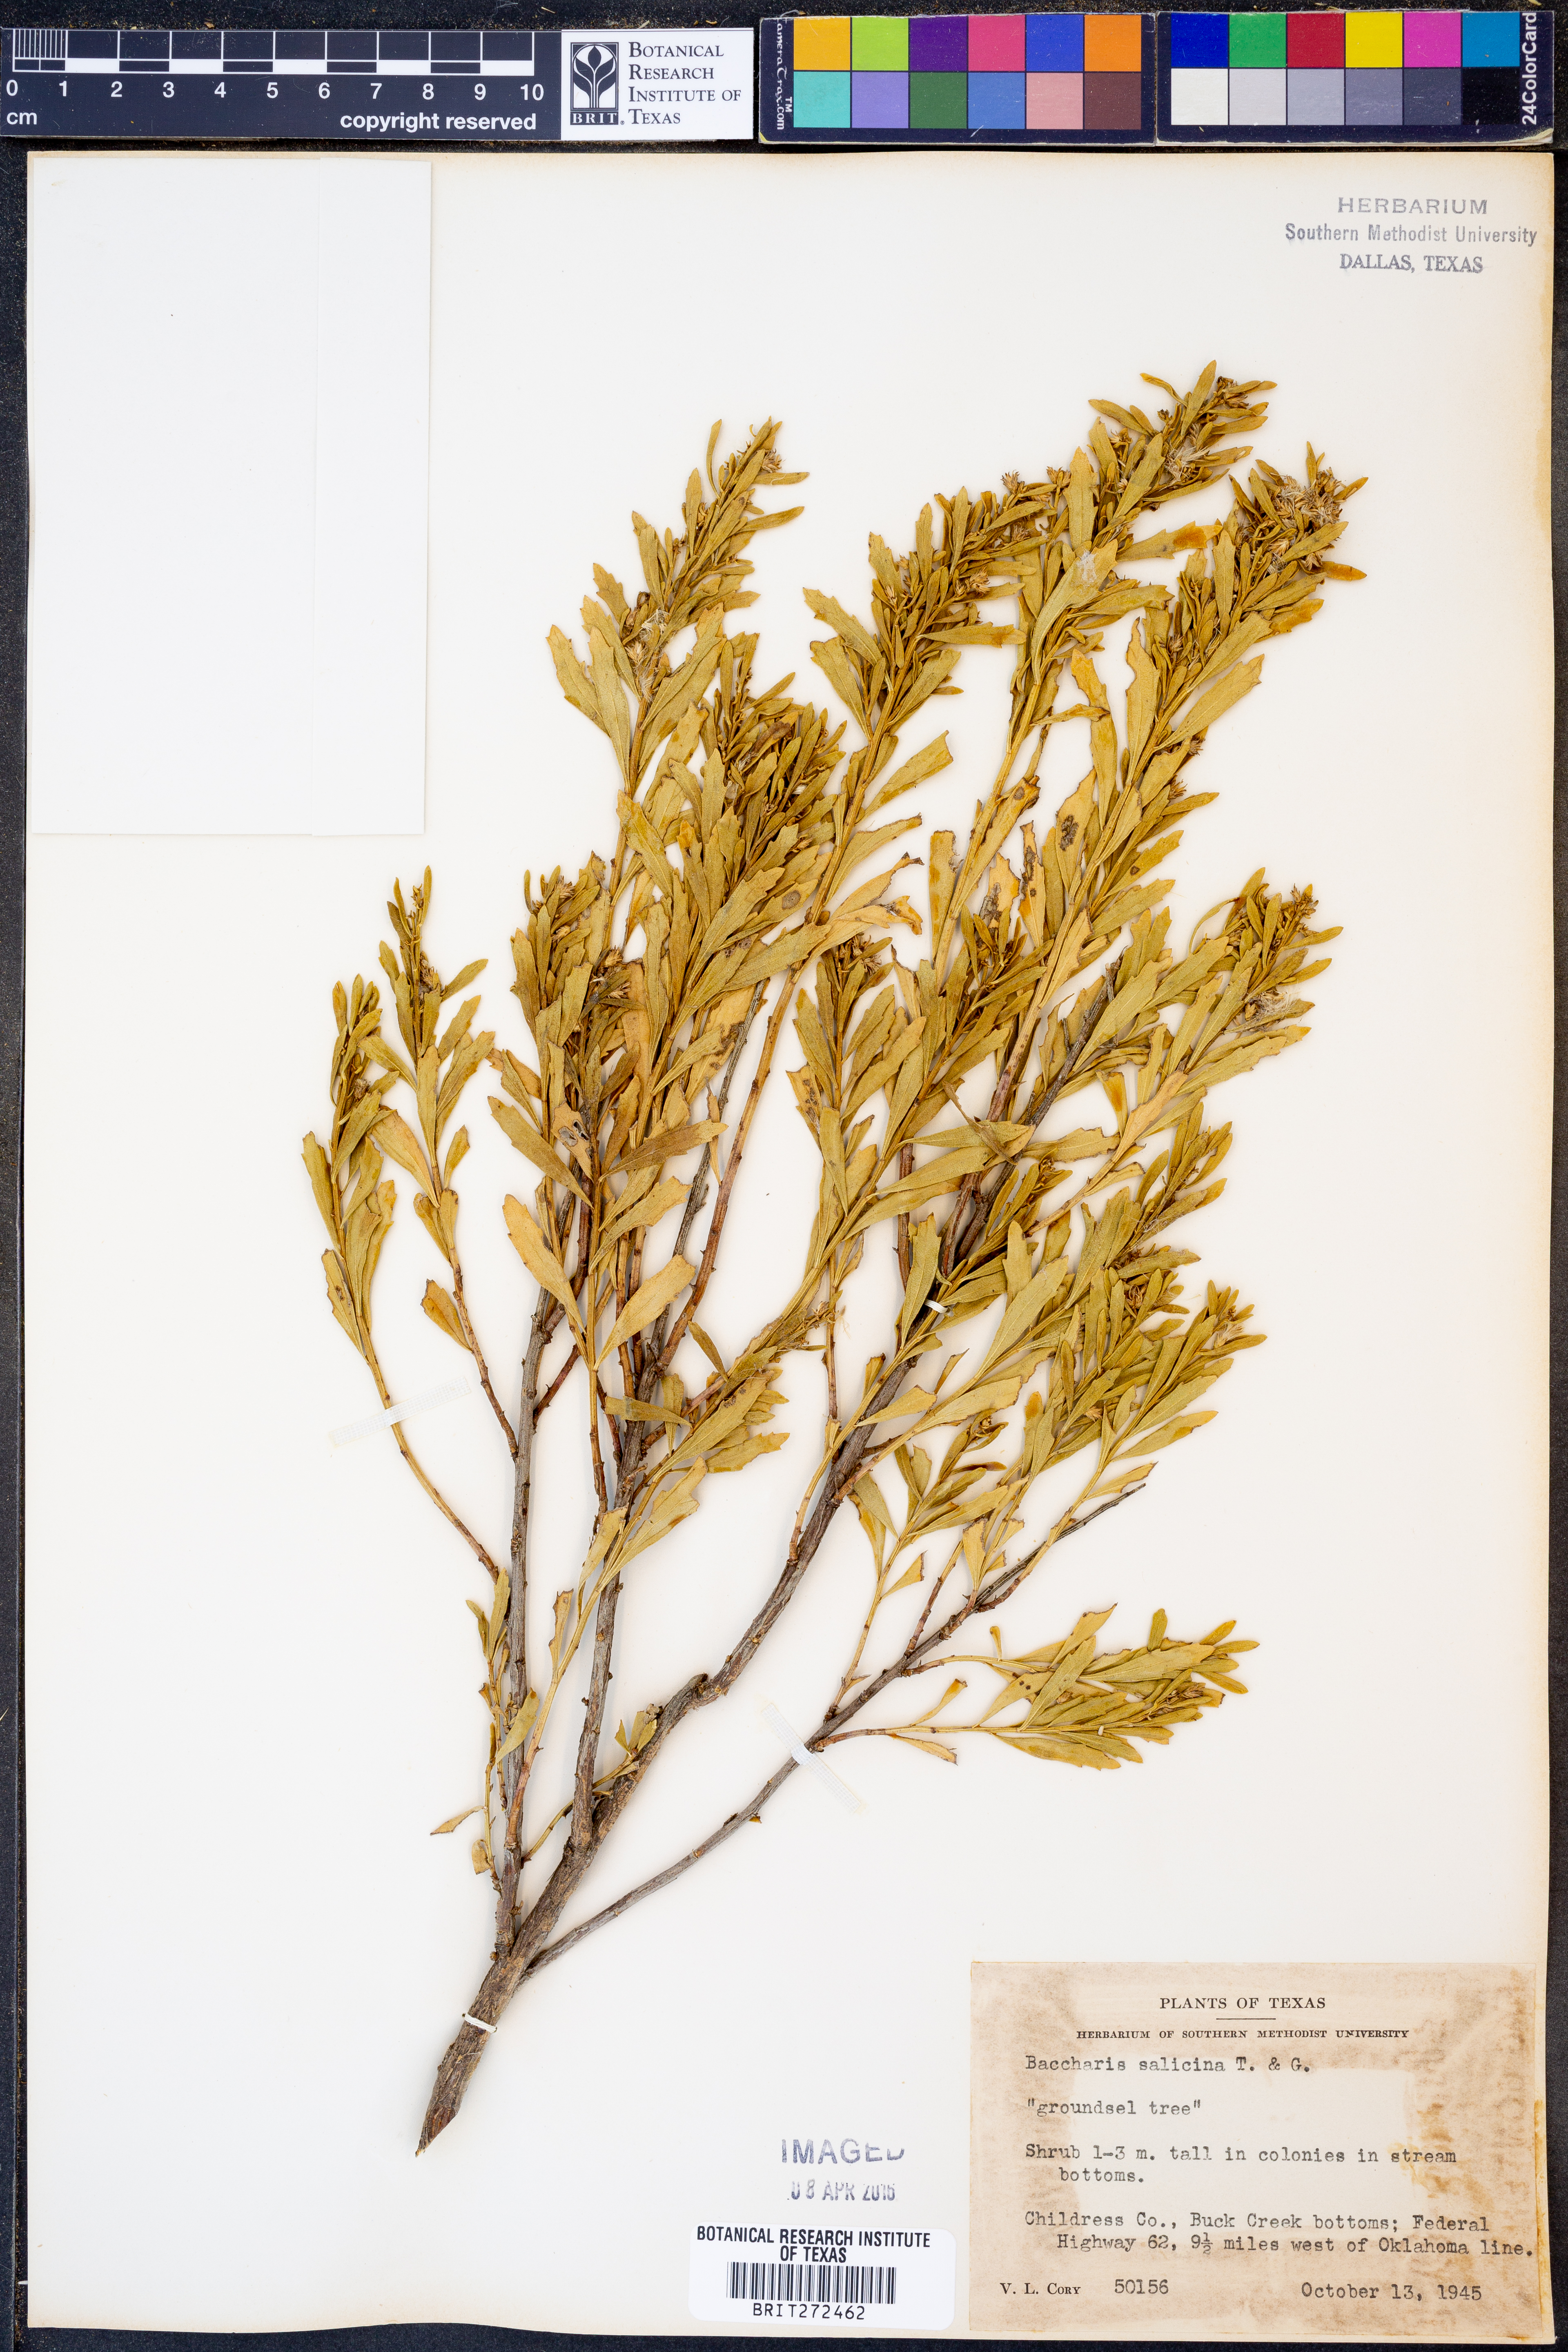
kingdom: Plantae
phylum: Tracheophyta
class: Magnoliopsida
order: Asterales
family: Asteraceae
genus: Baccharis
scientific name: Baccharis salicina
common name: Willow baccharis
